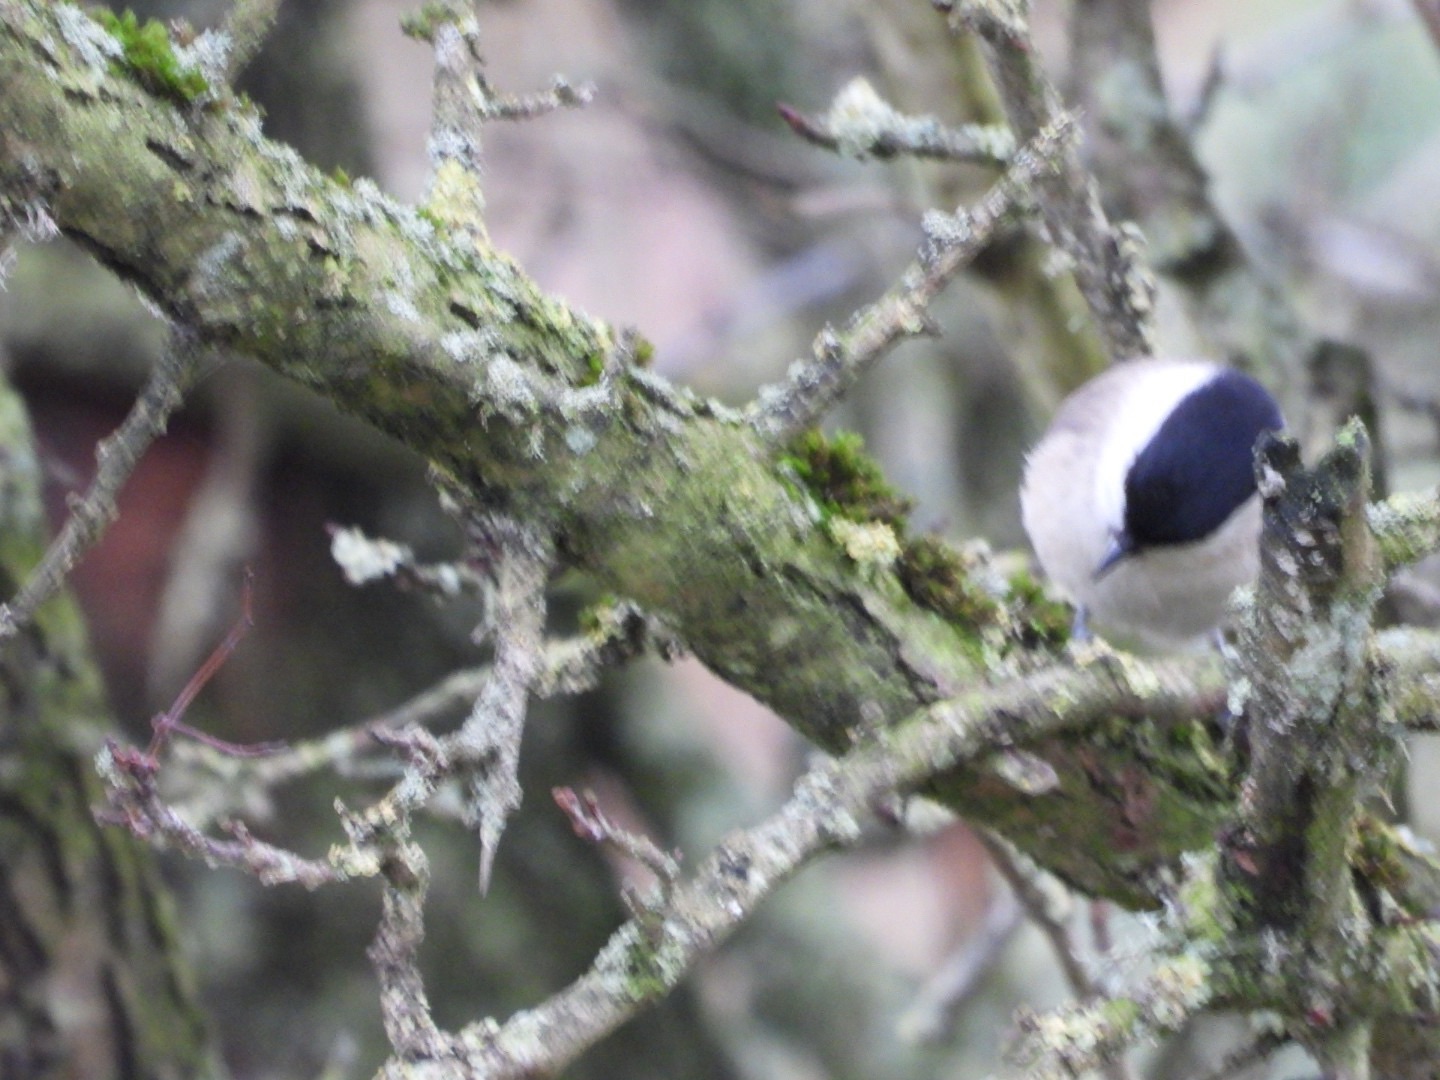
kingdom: Animalia
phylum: Chordata
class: Aves
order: Passeriformes
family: Paridae
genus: Poecile
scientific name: Poecile palustris
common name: Sumpmejse
